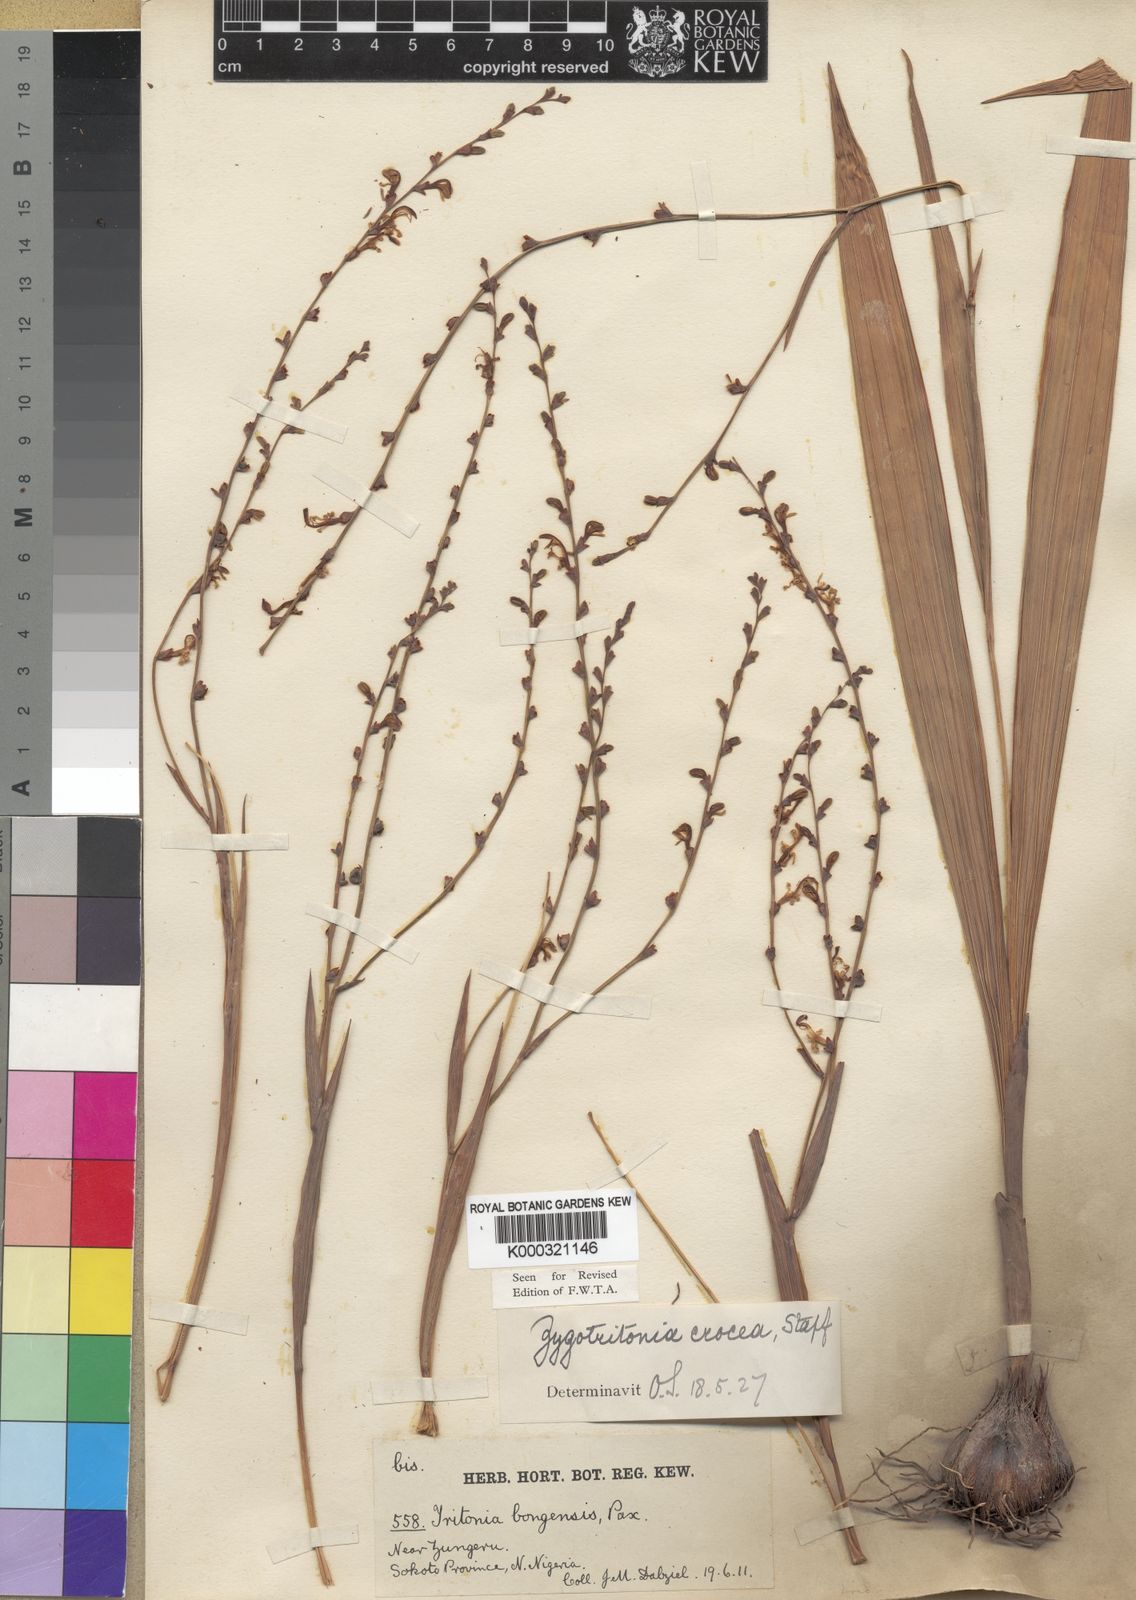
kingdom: Plantae
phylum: Tracheophyta
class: Liliopsida
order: Asparagales
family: Iridaceae
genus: Zygotritonia
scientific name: Zygotritonia bongensis
